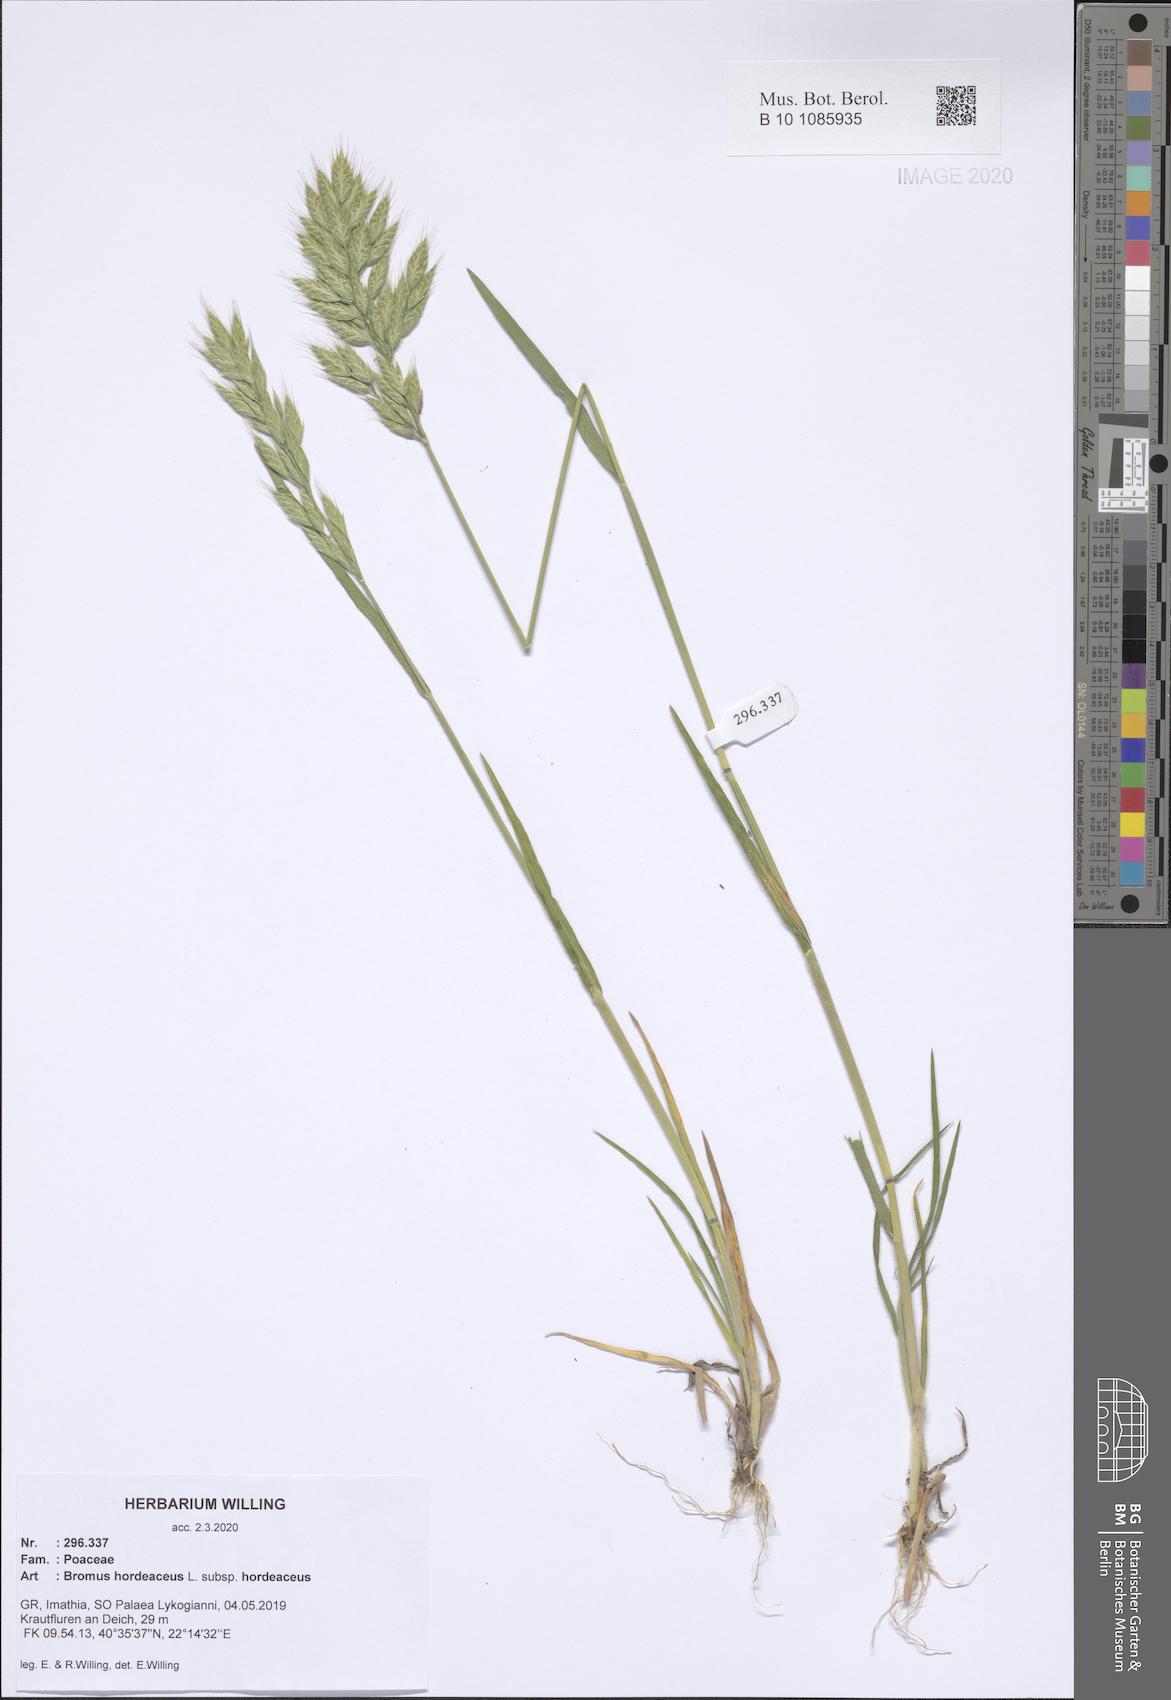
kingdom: Plantae
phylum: Tracheophyta
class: Liliopsida
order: Poales
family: Poaceae
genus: Bromus
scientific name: Bromus hordeaceus
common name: Soft brome
